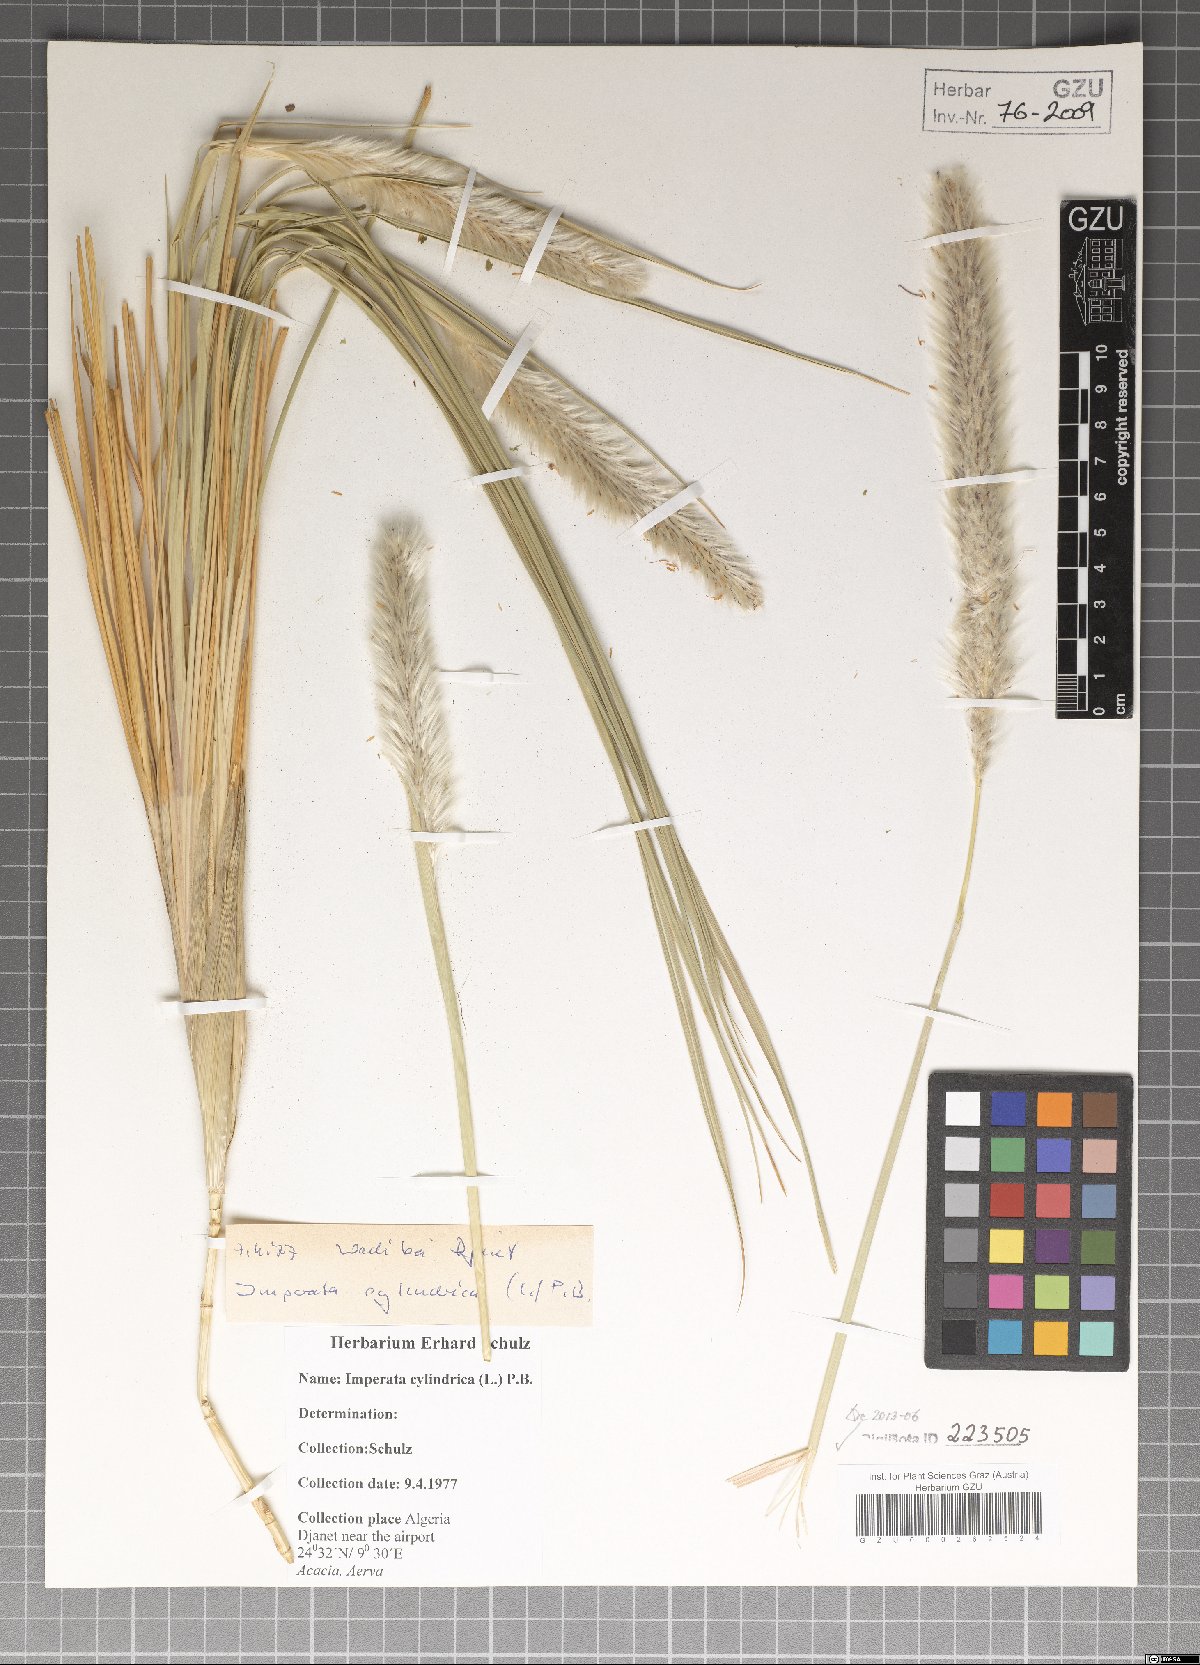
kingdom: Plantae
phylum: Tracheophyta
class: Liliopsida
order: Poales
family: Poaceae
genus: Imperata
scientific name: Imperata cylindrica
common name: Cogongrass
